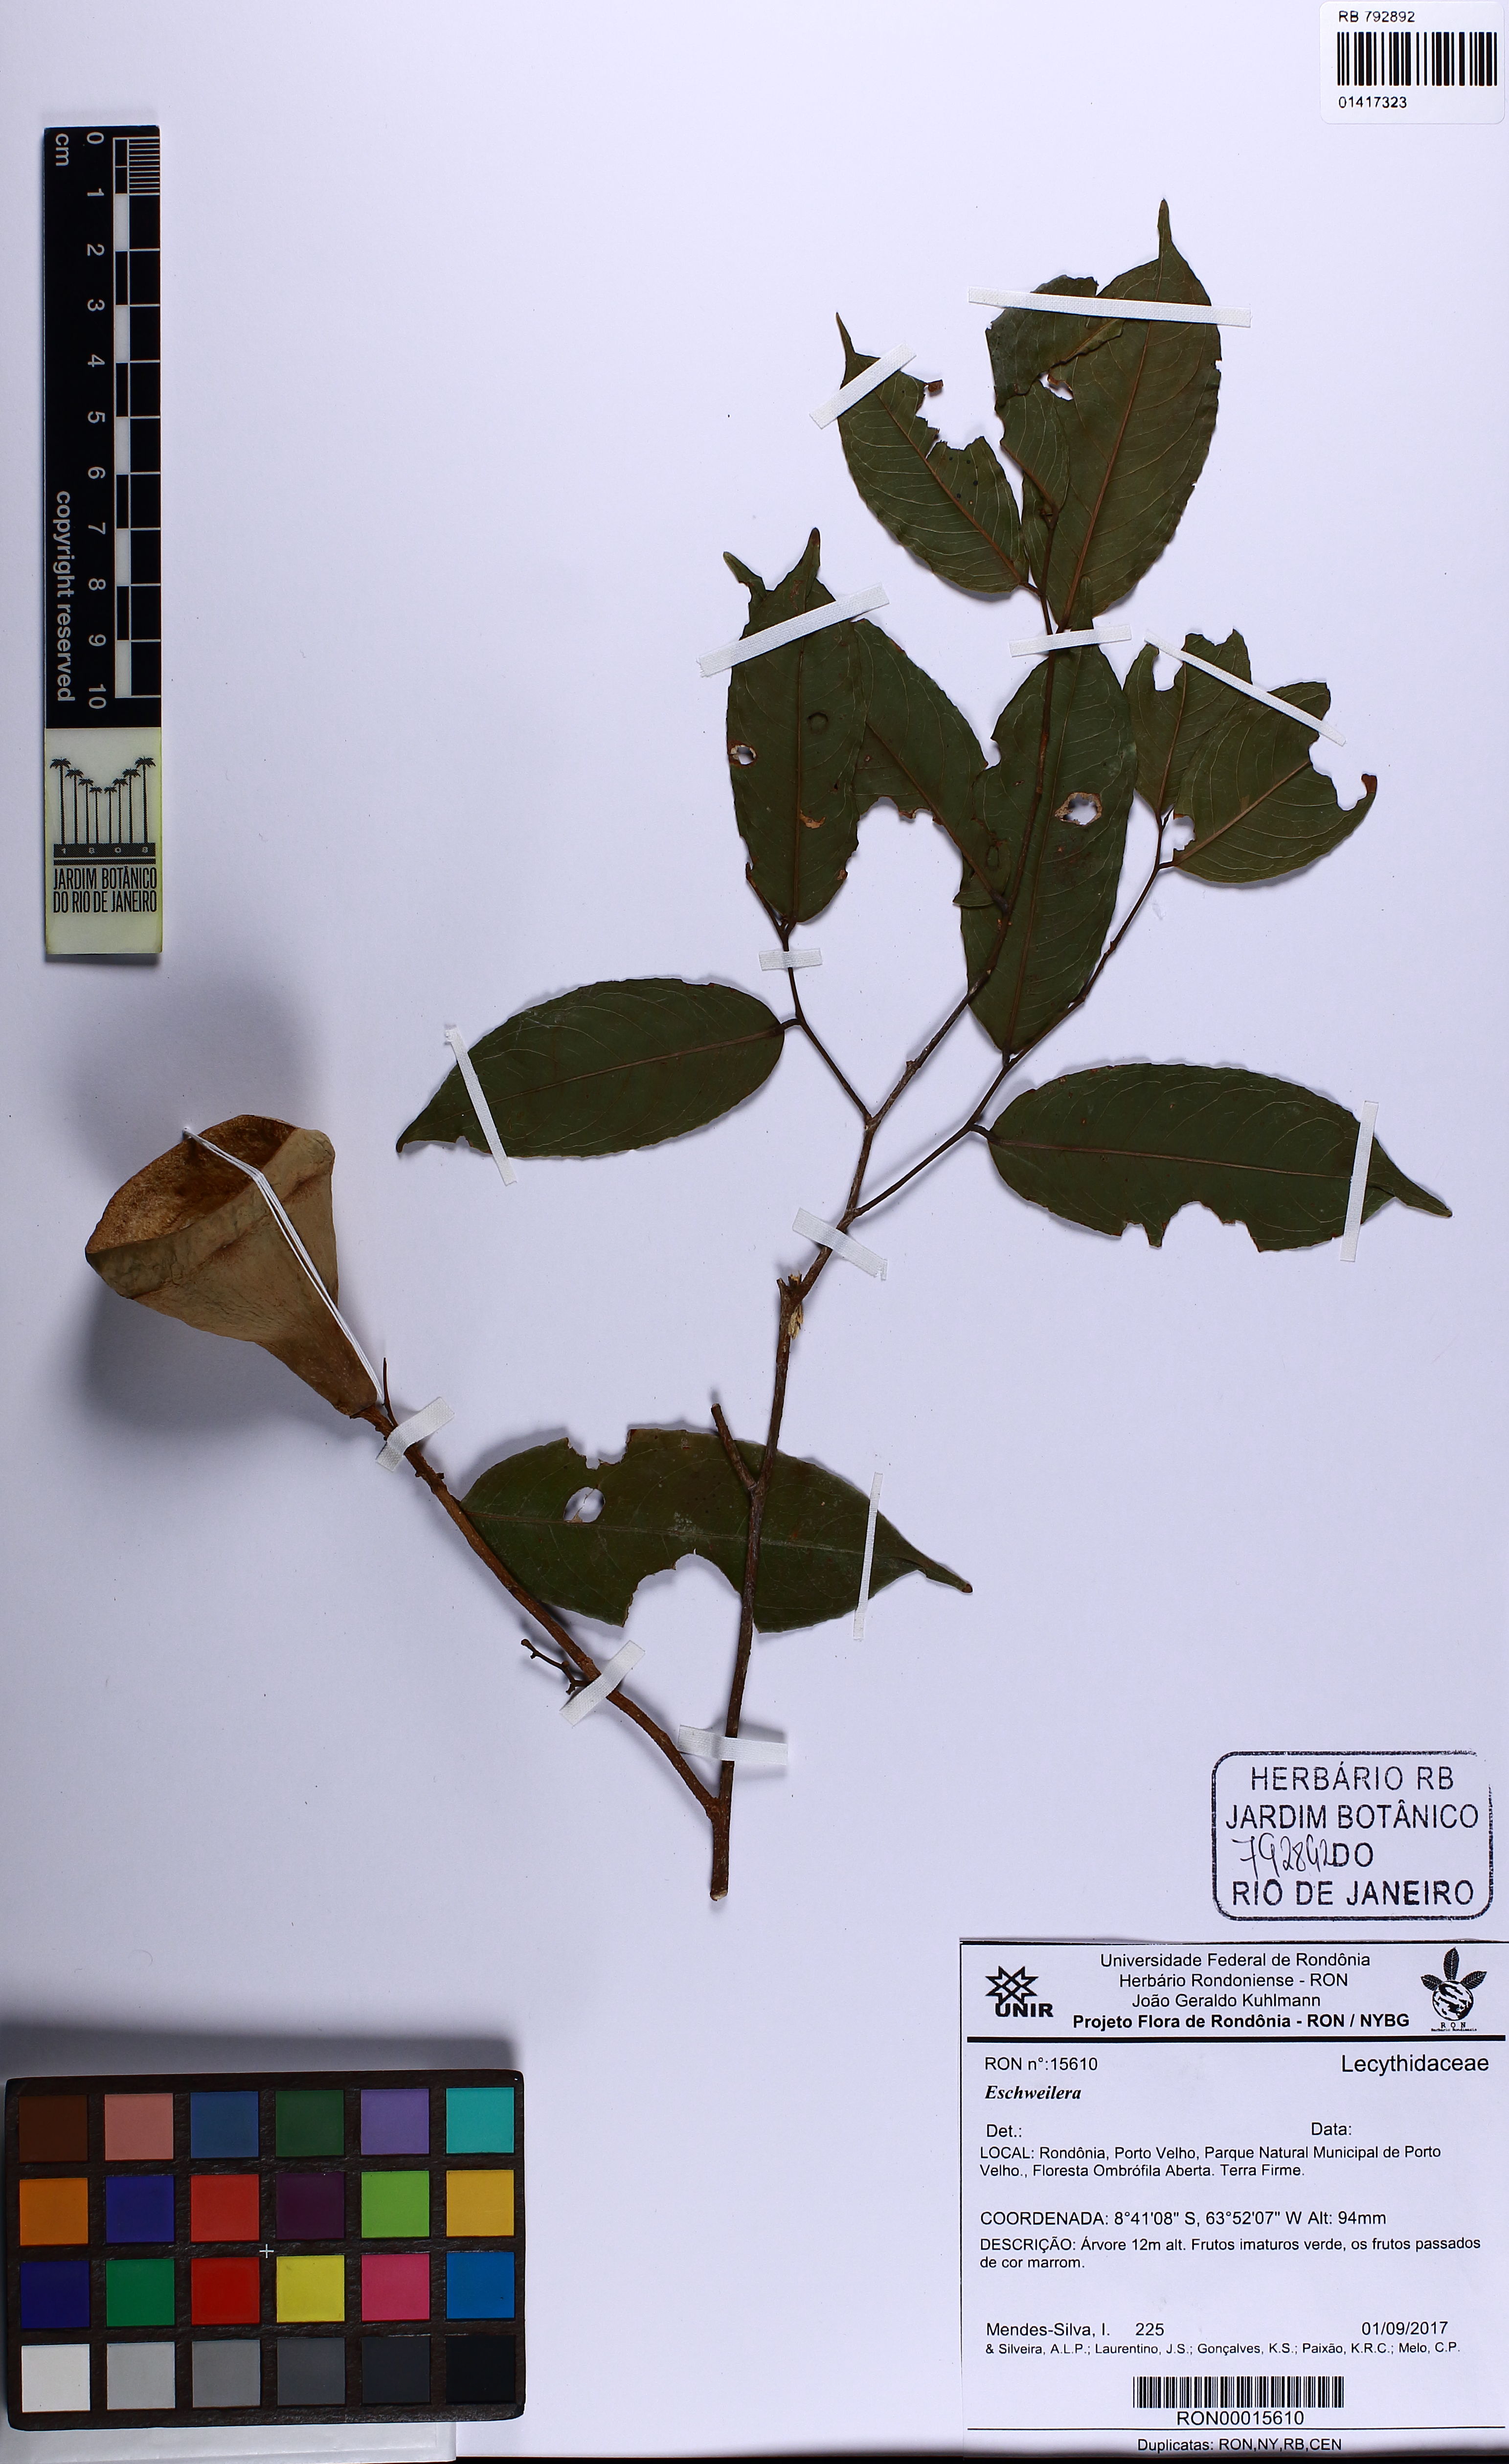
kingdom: Plantae
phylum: Tracheophyta
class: Magnoliopsida
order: Ericales
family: Lecythidaceae
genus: Eschweilera
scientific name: Eschweilera
